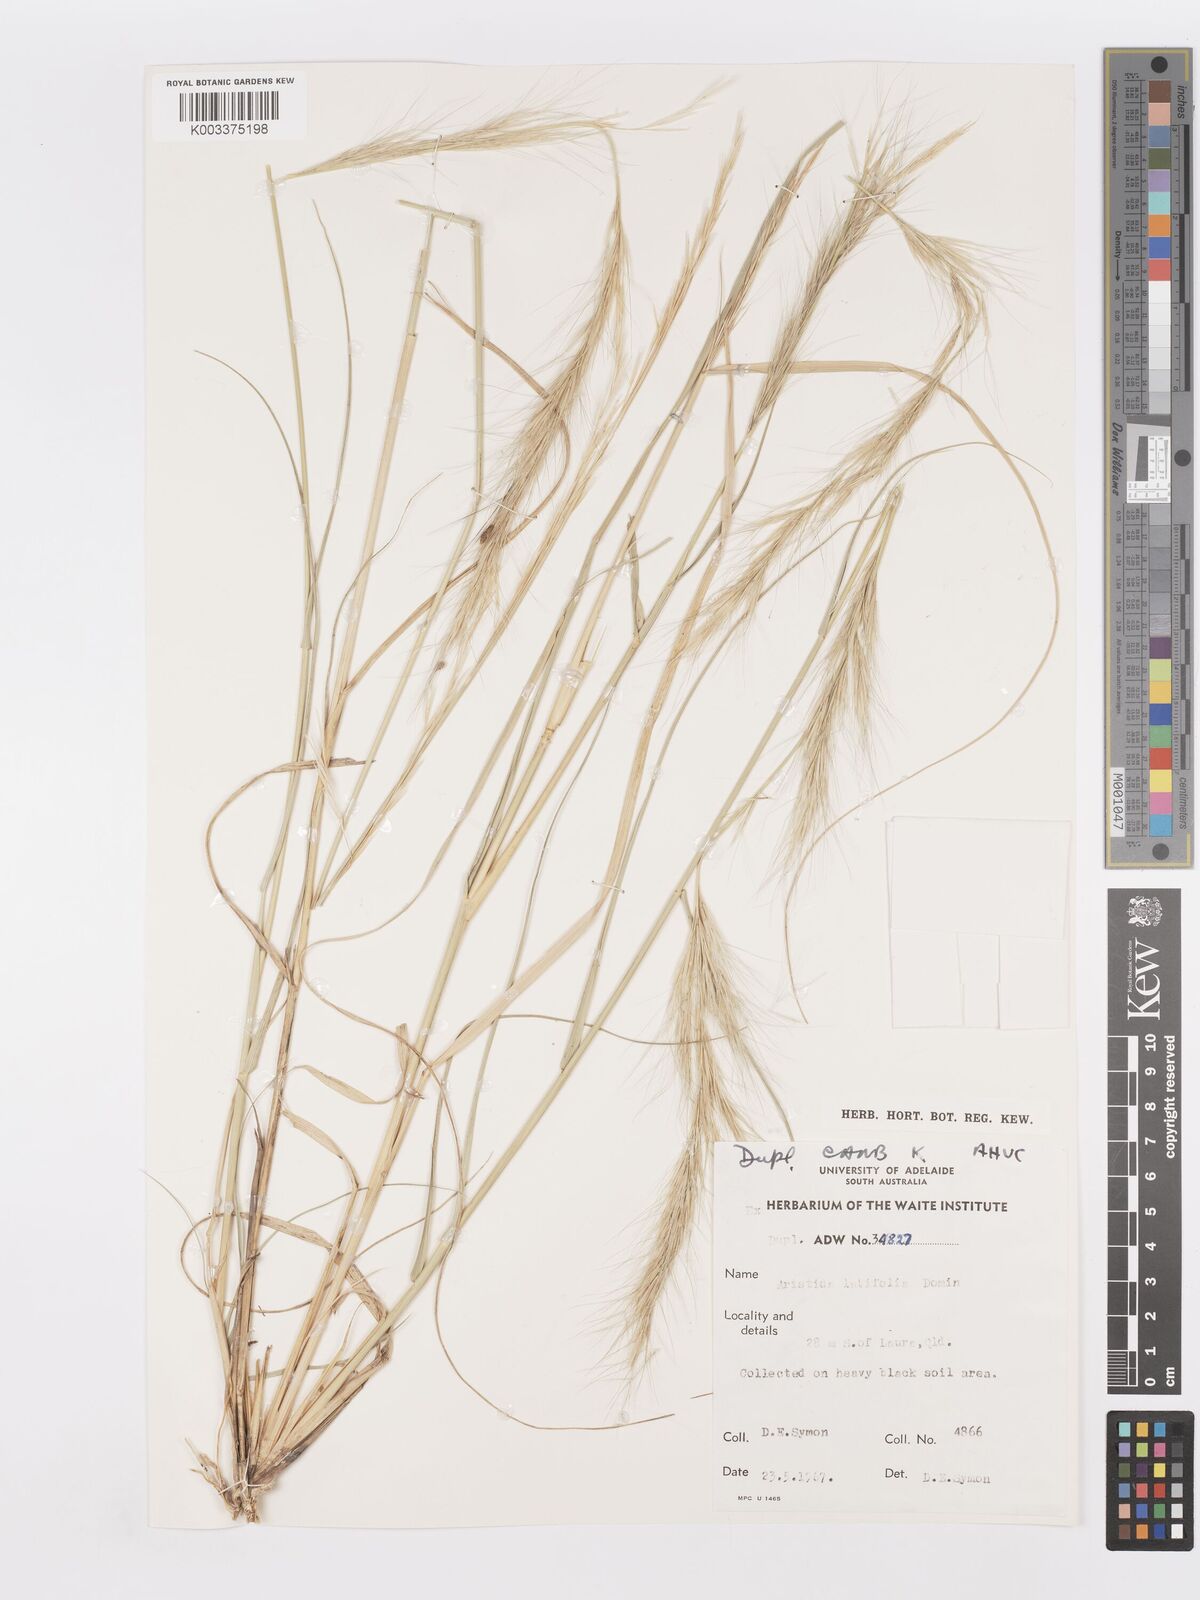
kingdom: Plantae
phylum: Tracheophyta
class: Liliopsida
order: Poales
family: Poaceae
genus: Aristida
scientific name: Aristida latifolia
